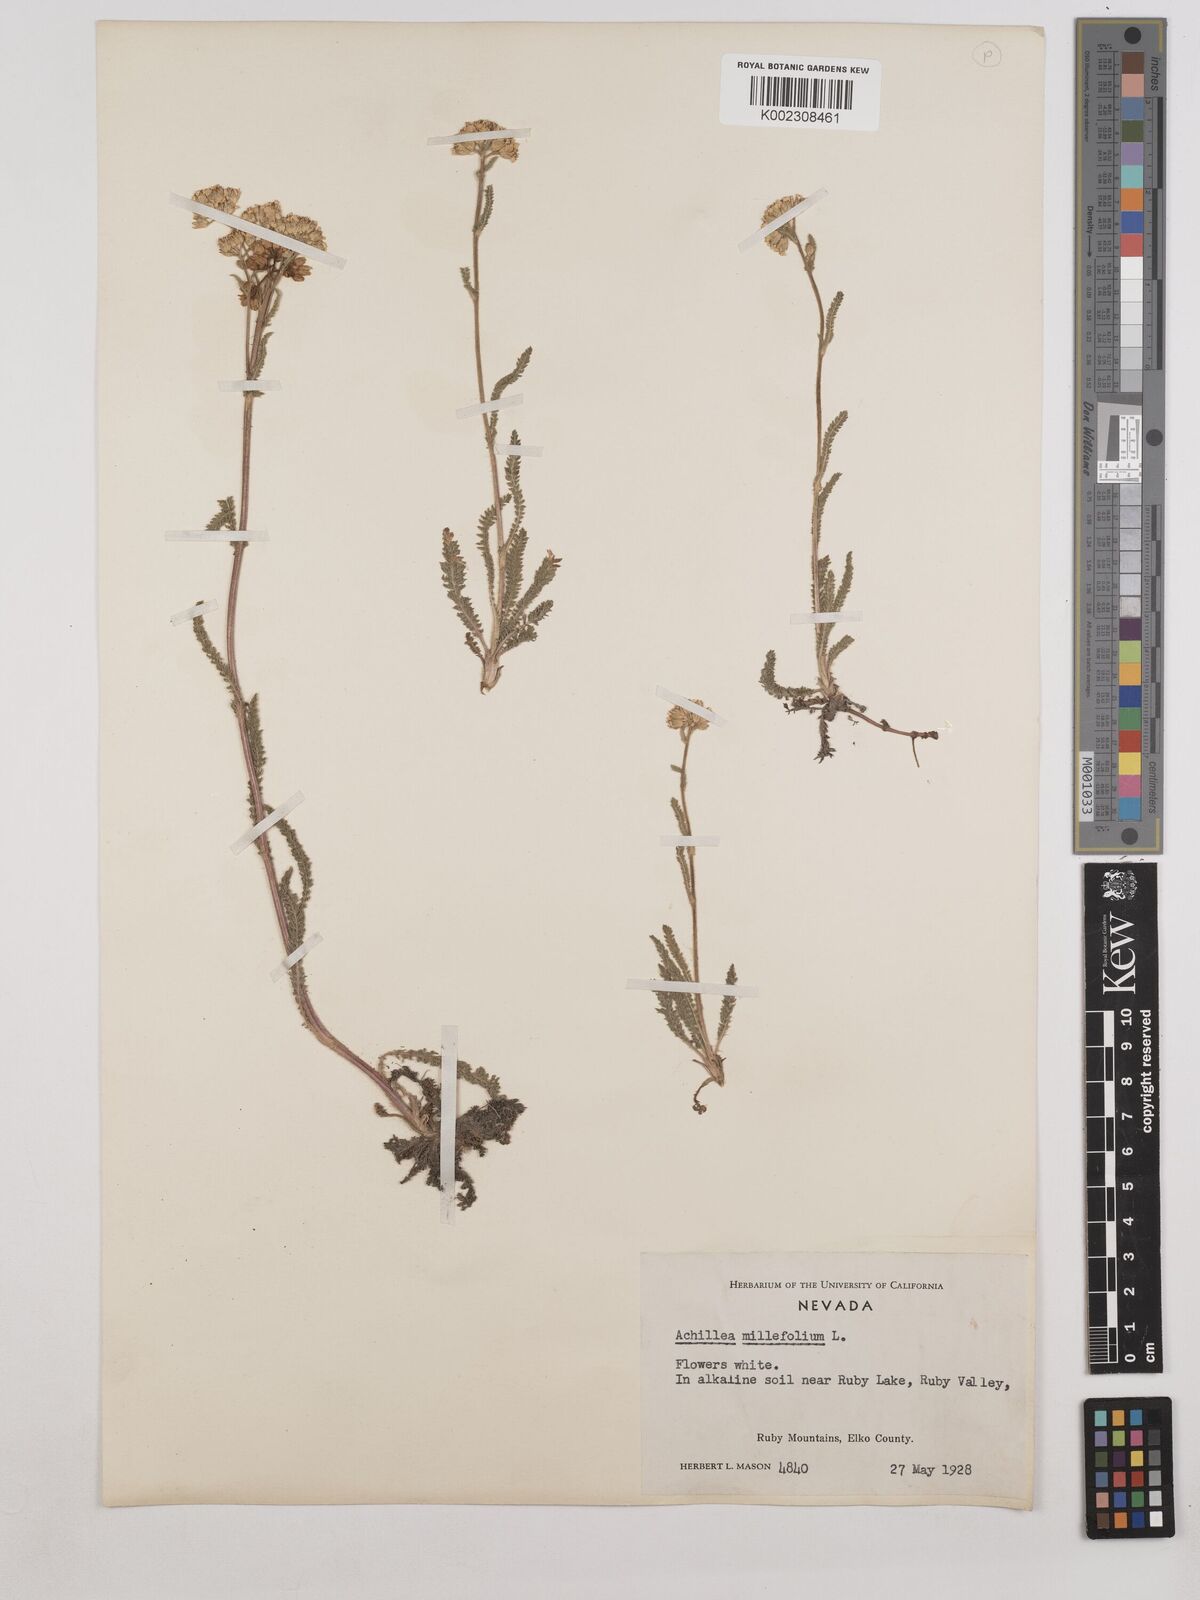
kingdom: Plantae
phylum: Tracheophyta
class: Magnoliopsida
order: Asterales
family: Asteraceae
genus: Achillea
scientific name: Achillea millefolium
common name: Yarrow
